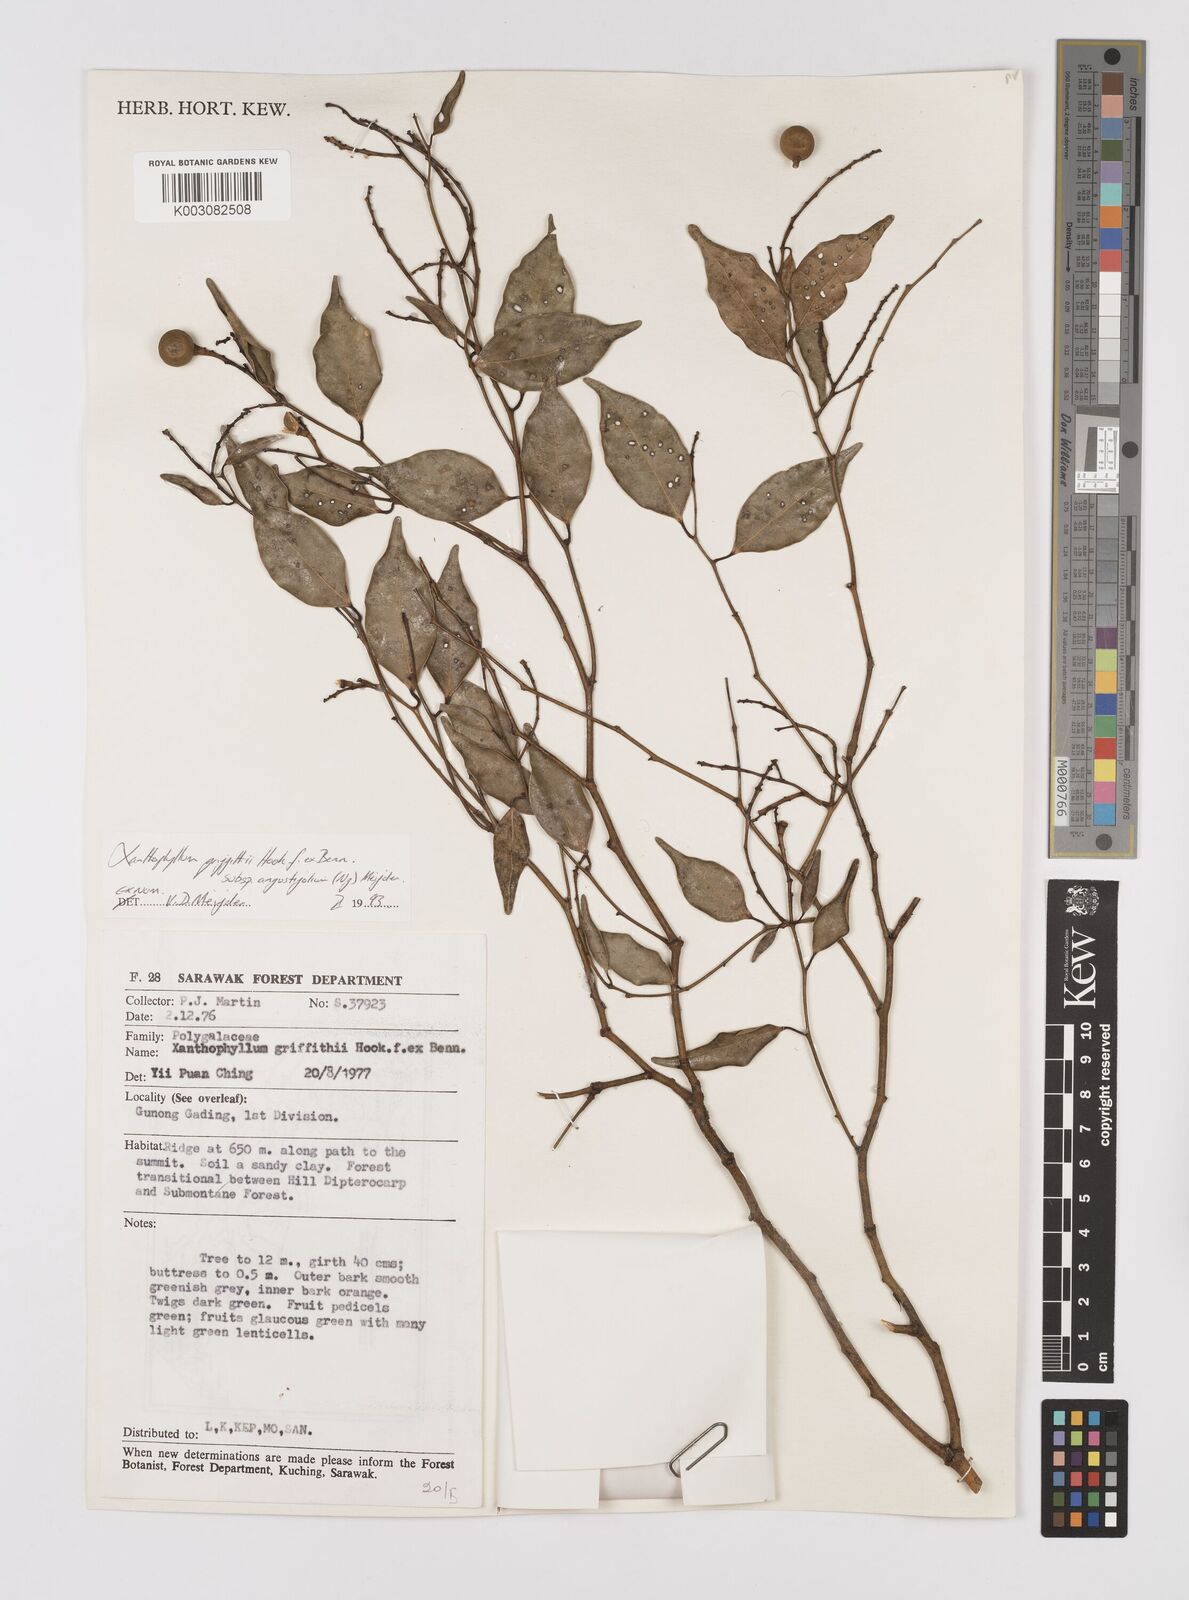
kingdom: Plantae
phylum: Tracheophyta
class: Magnoliopsida
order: Fabales
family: Polygalaceae
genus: Xanthophyllum
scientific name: Xanthophyllum griffithii
